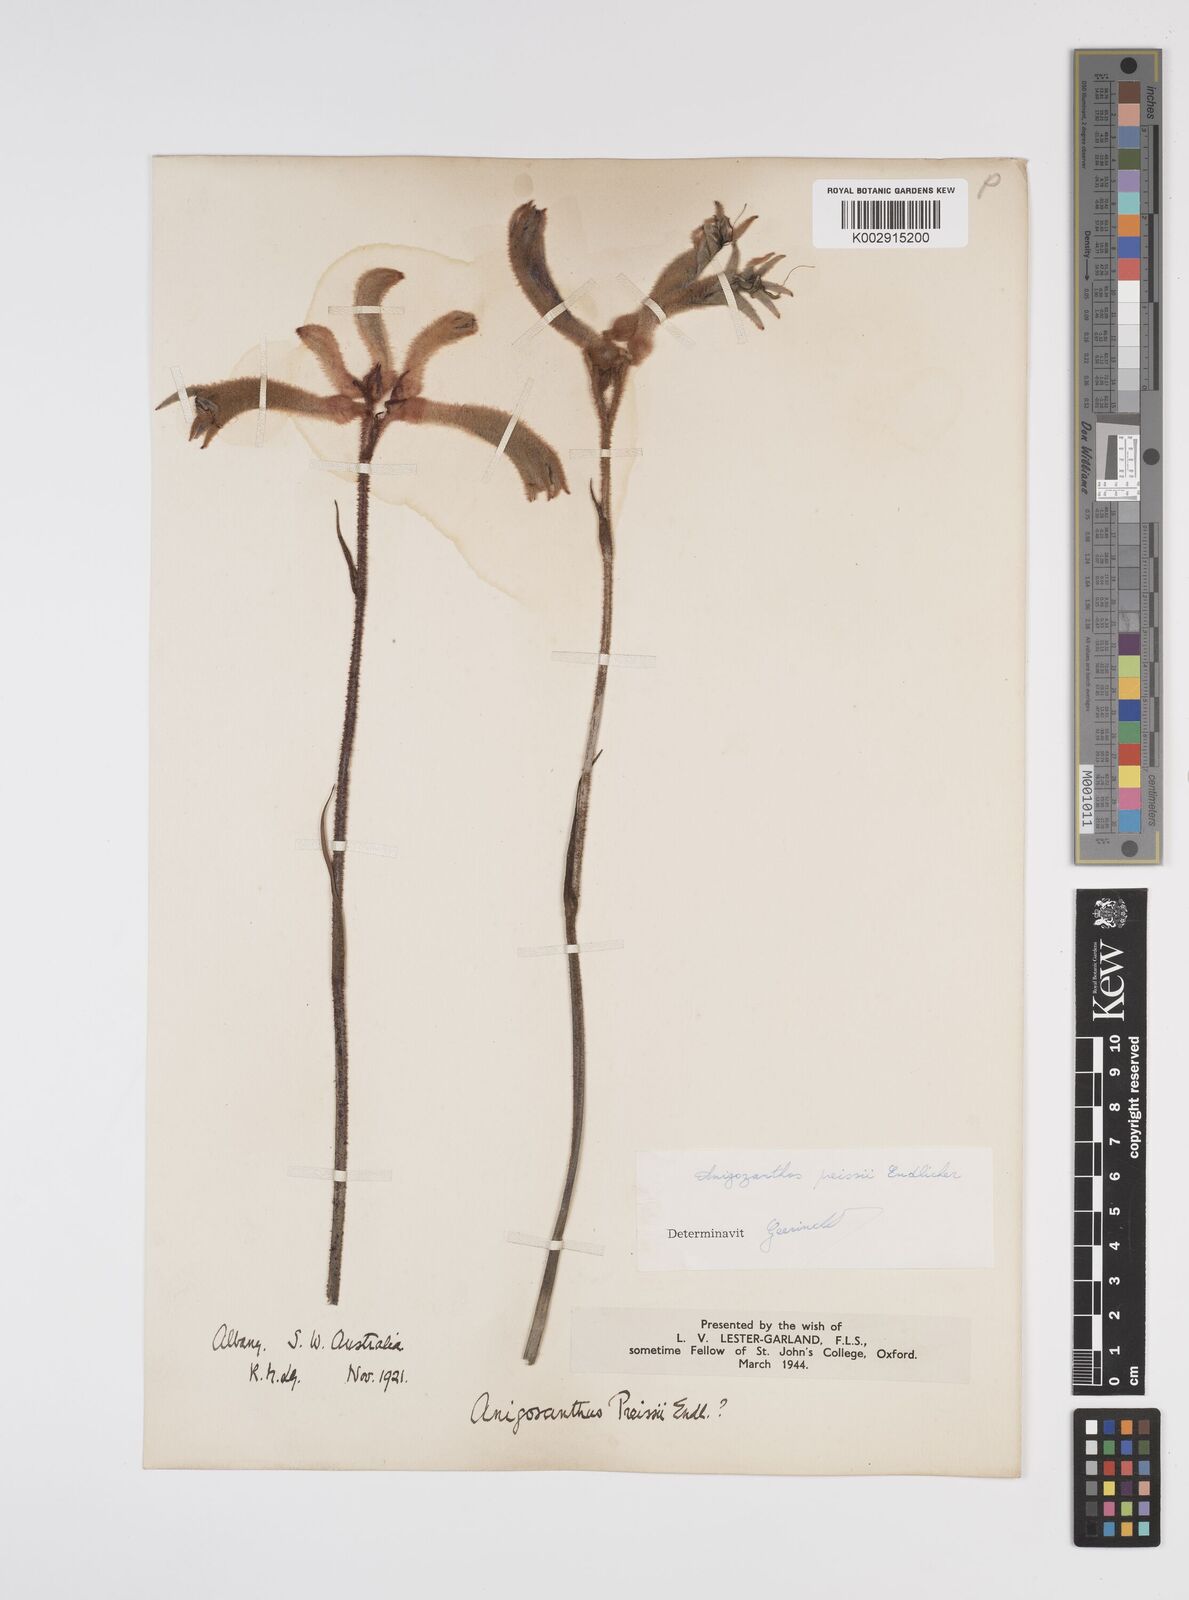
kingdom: Plantae
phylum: Tracheophyta
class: Liliopsida
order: Commelinales
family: Haemodoraceae
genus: Anigozanthos
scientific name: Anigozanthos preissii
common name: Albany cat's-paw
